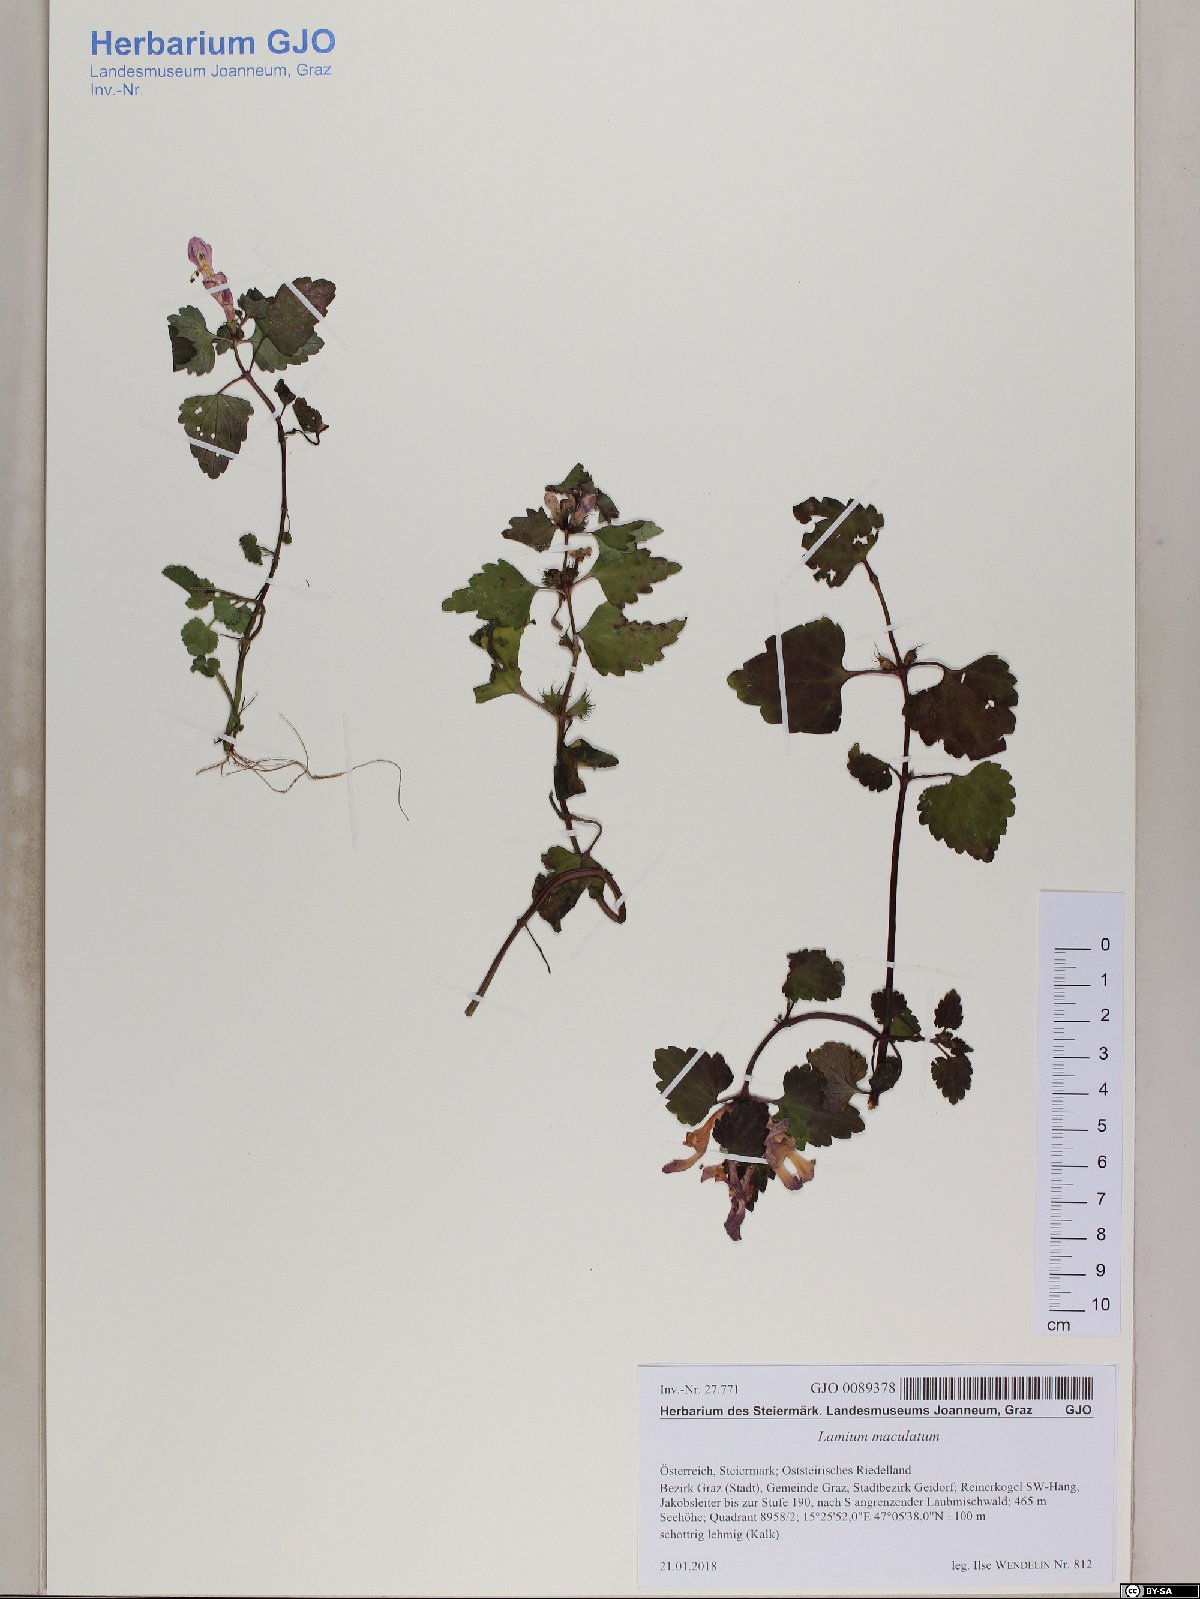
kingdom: Plantae
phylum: Tracheophyta
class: Magnoliopsida
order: Lamiales
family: Lamiaceae
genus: Lamium
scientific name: Lamium maculatum
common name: Spotted dead-nettle
